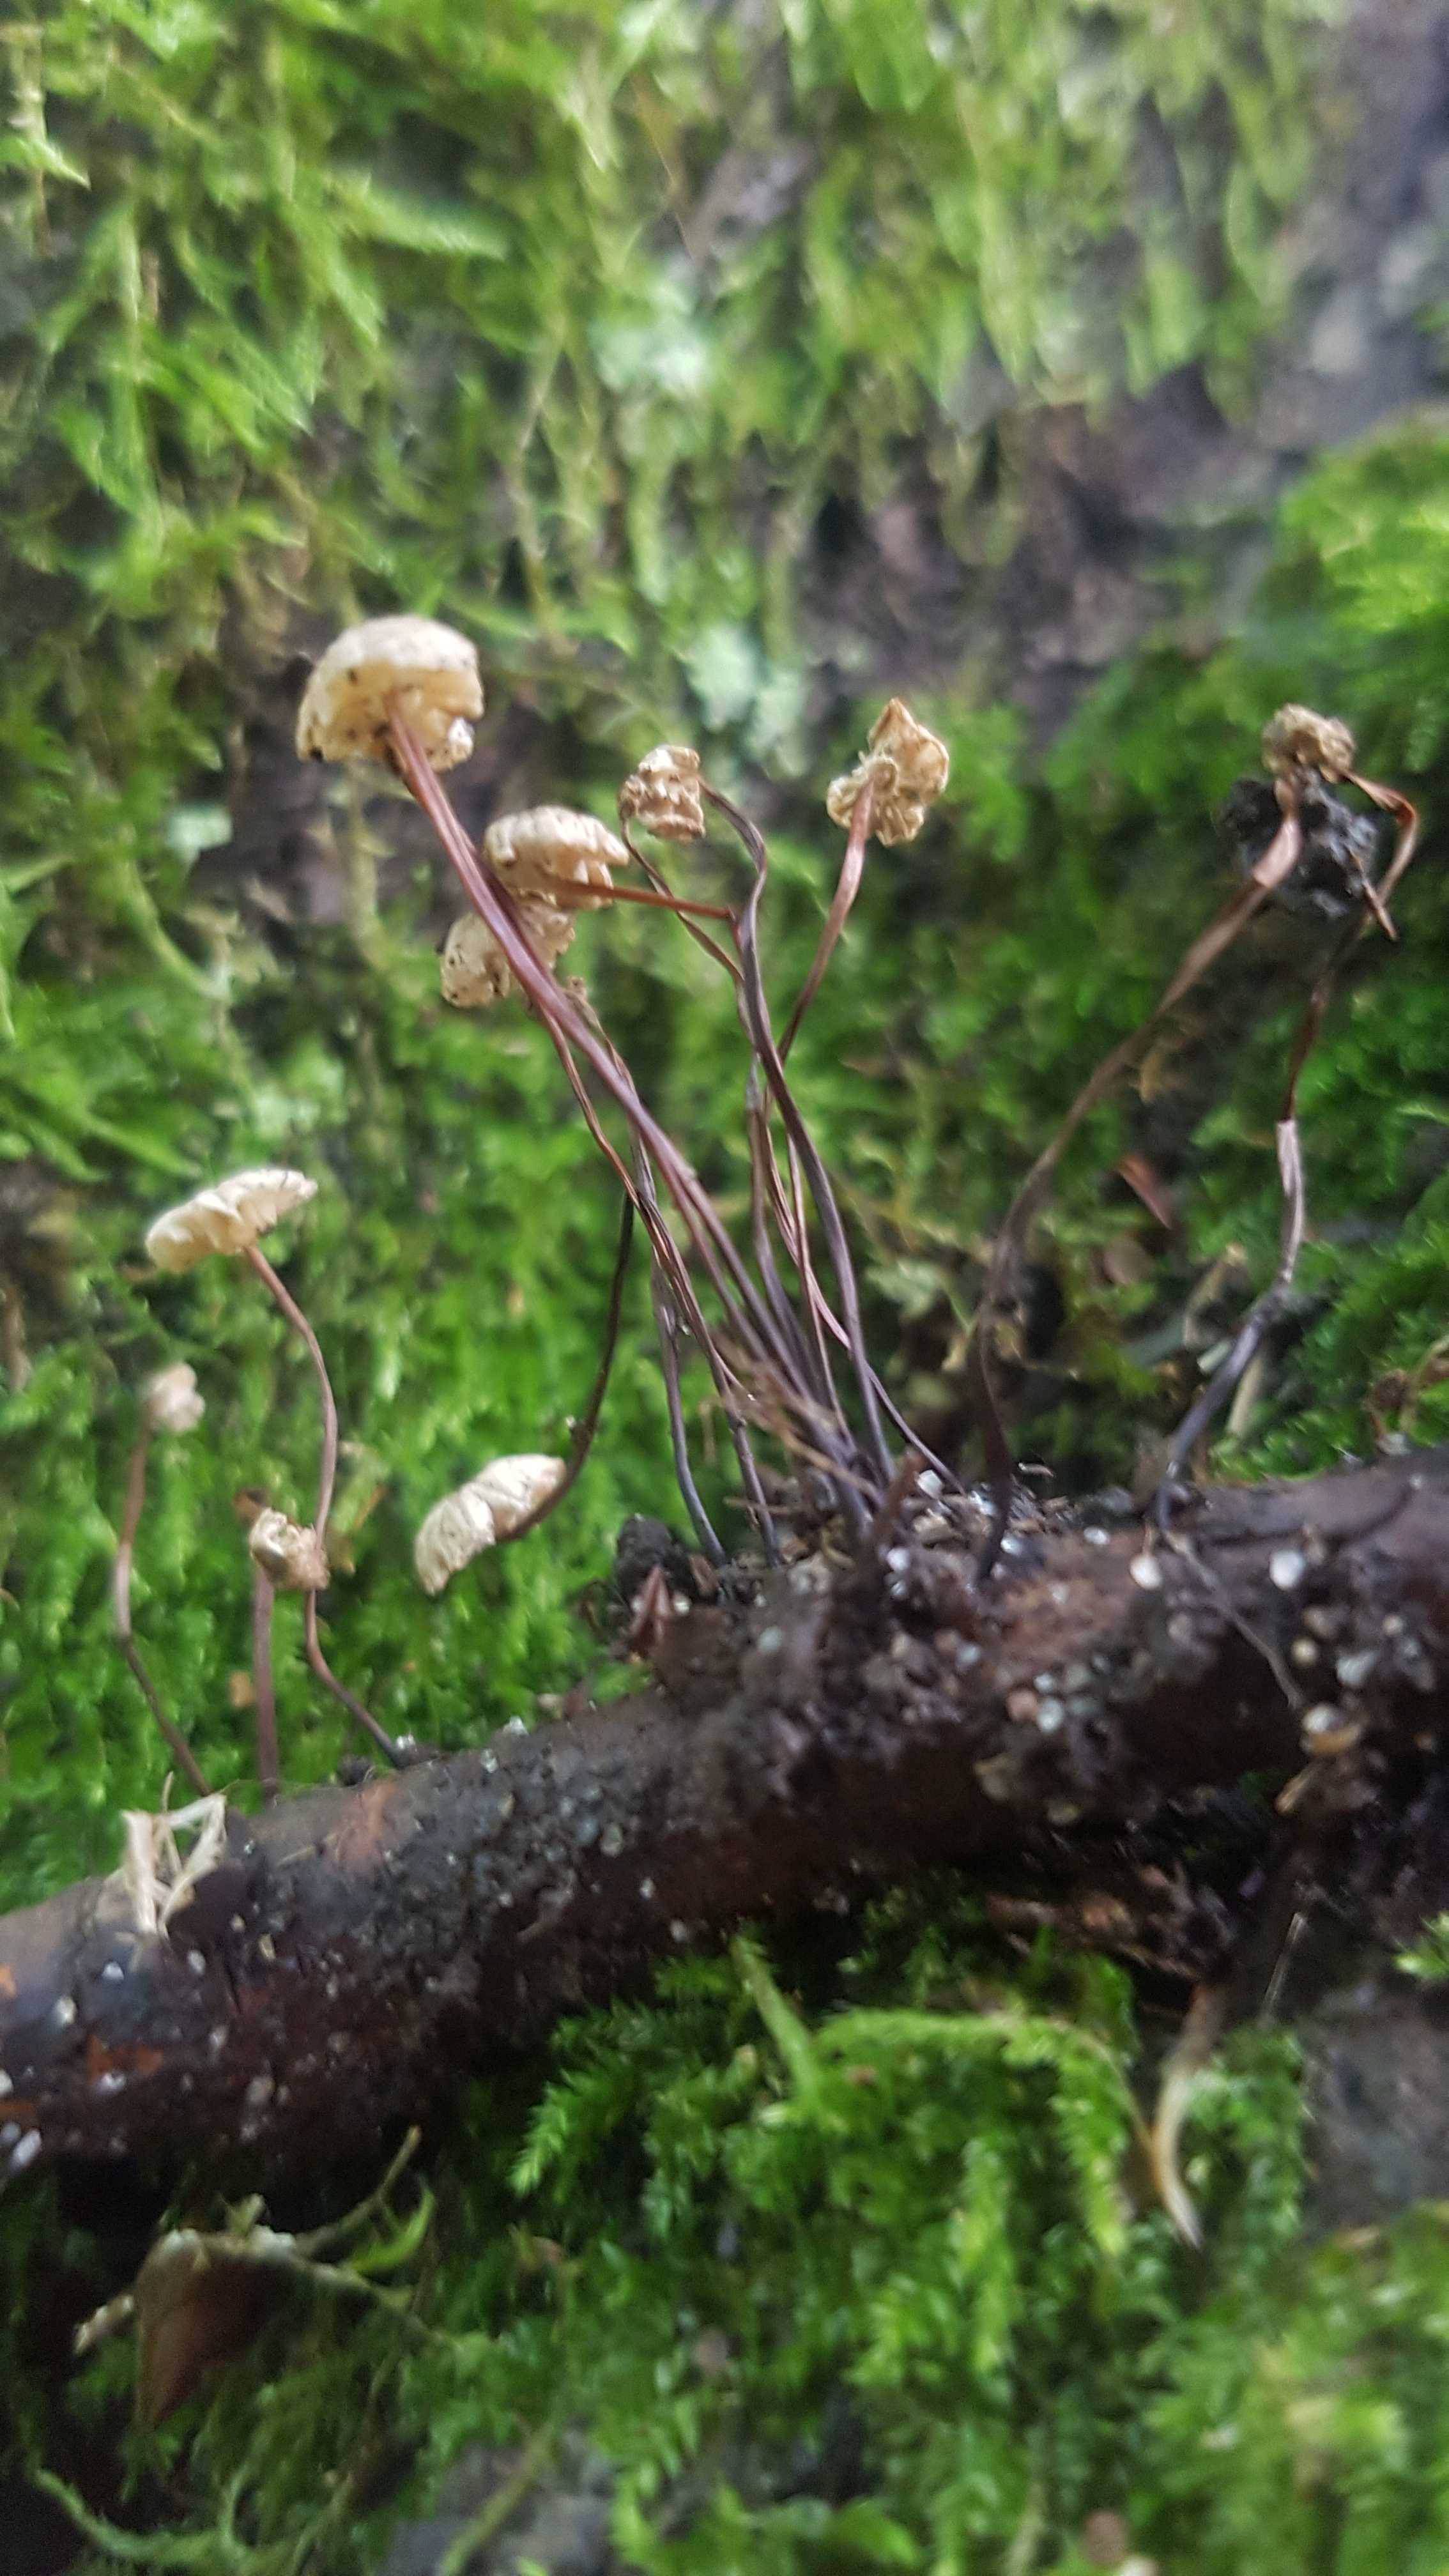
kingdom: Fungi
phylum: Basidiomycota
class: Agaricomycetes
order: Agaricales
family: Marasmiaceae
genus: Marasmius
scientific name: Marasmius rotula
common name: hjul-bruskhat
